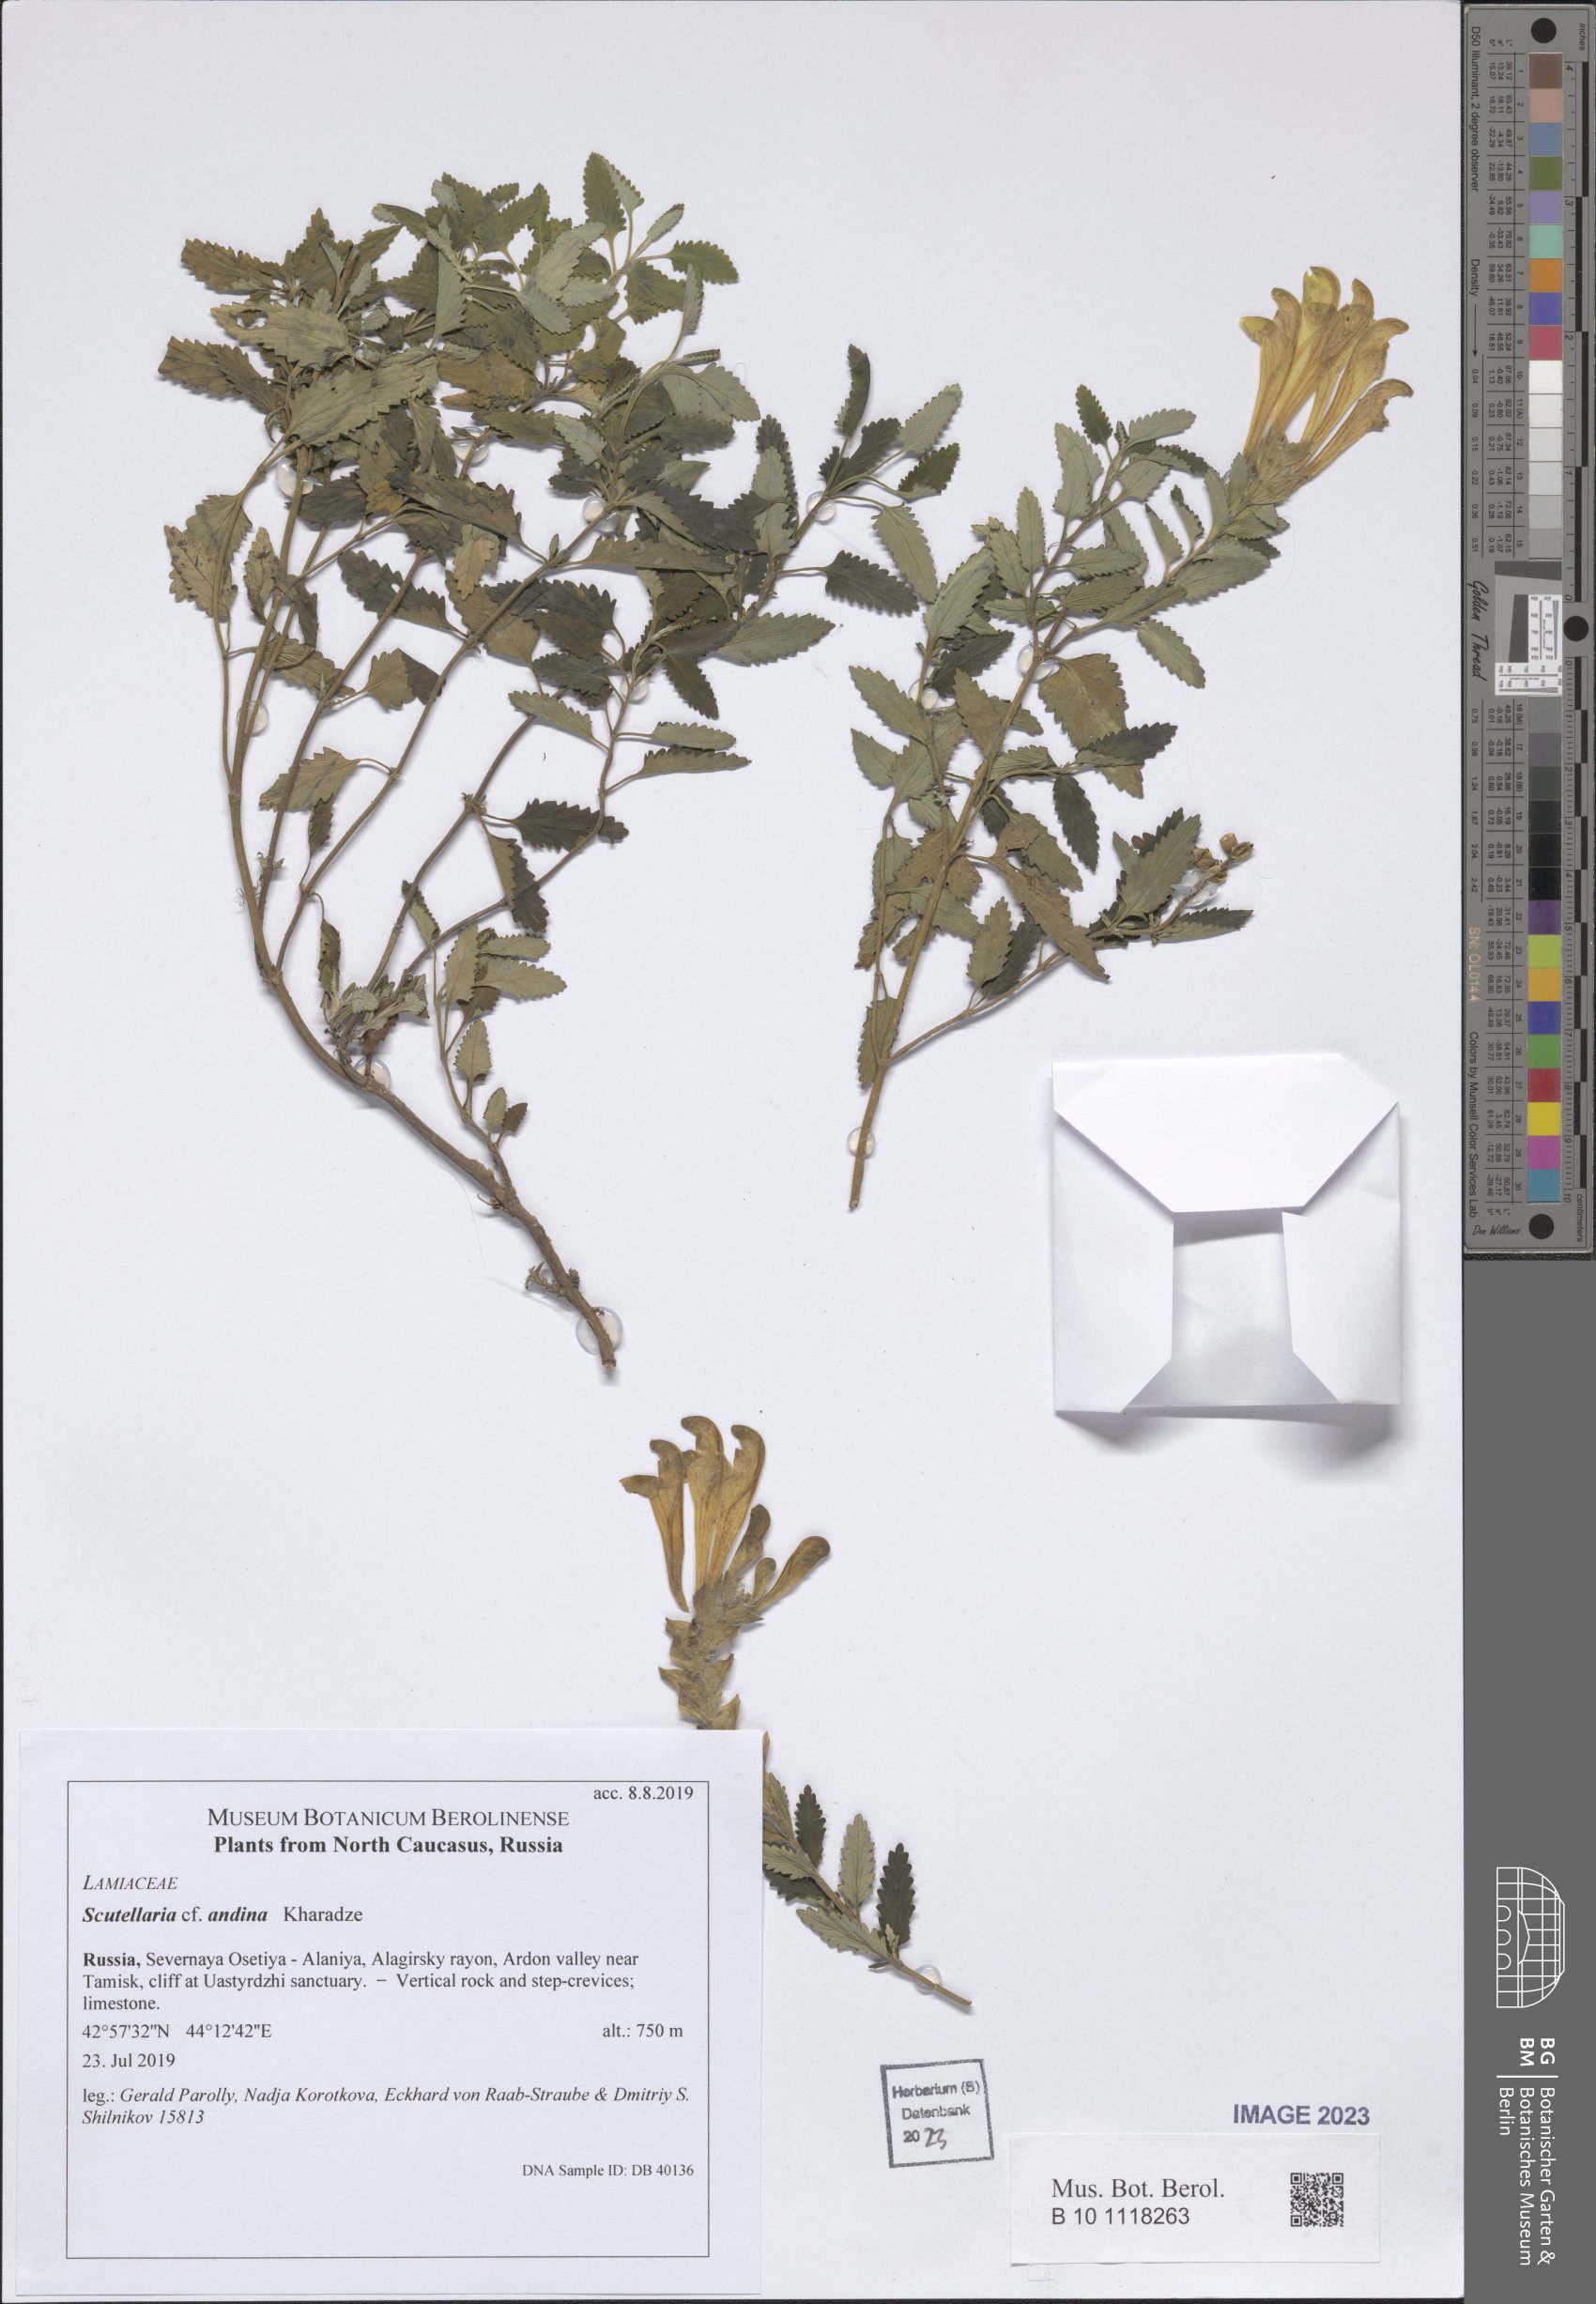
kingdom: Plantae
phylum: Tracheophyta
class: Magnoliopsida
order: Lamiales
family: Lamiaceae
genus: Scutellaria
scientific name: Scutellaria andina
